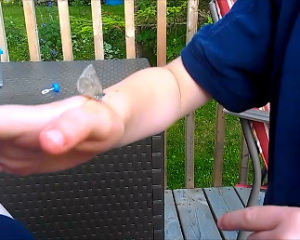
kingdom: Animalia
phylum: Arthropoda
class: Insecta
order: Lepidoptera
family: Lycaenidae
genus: Glaucopsyche
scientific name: Glaucopsyche lygdamus
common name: Silvery Blue
